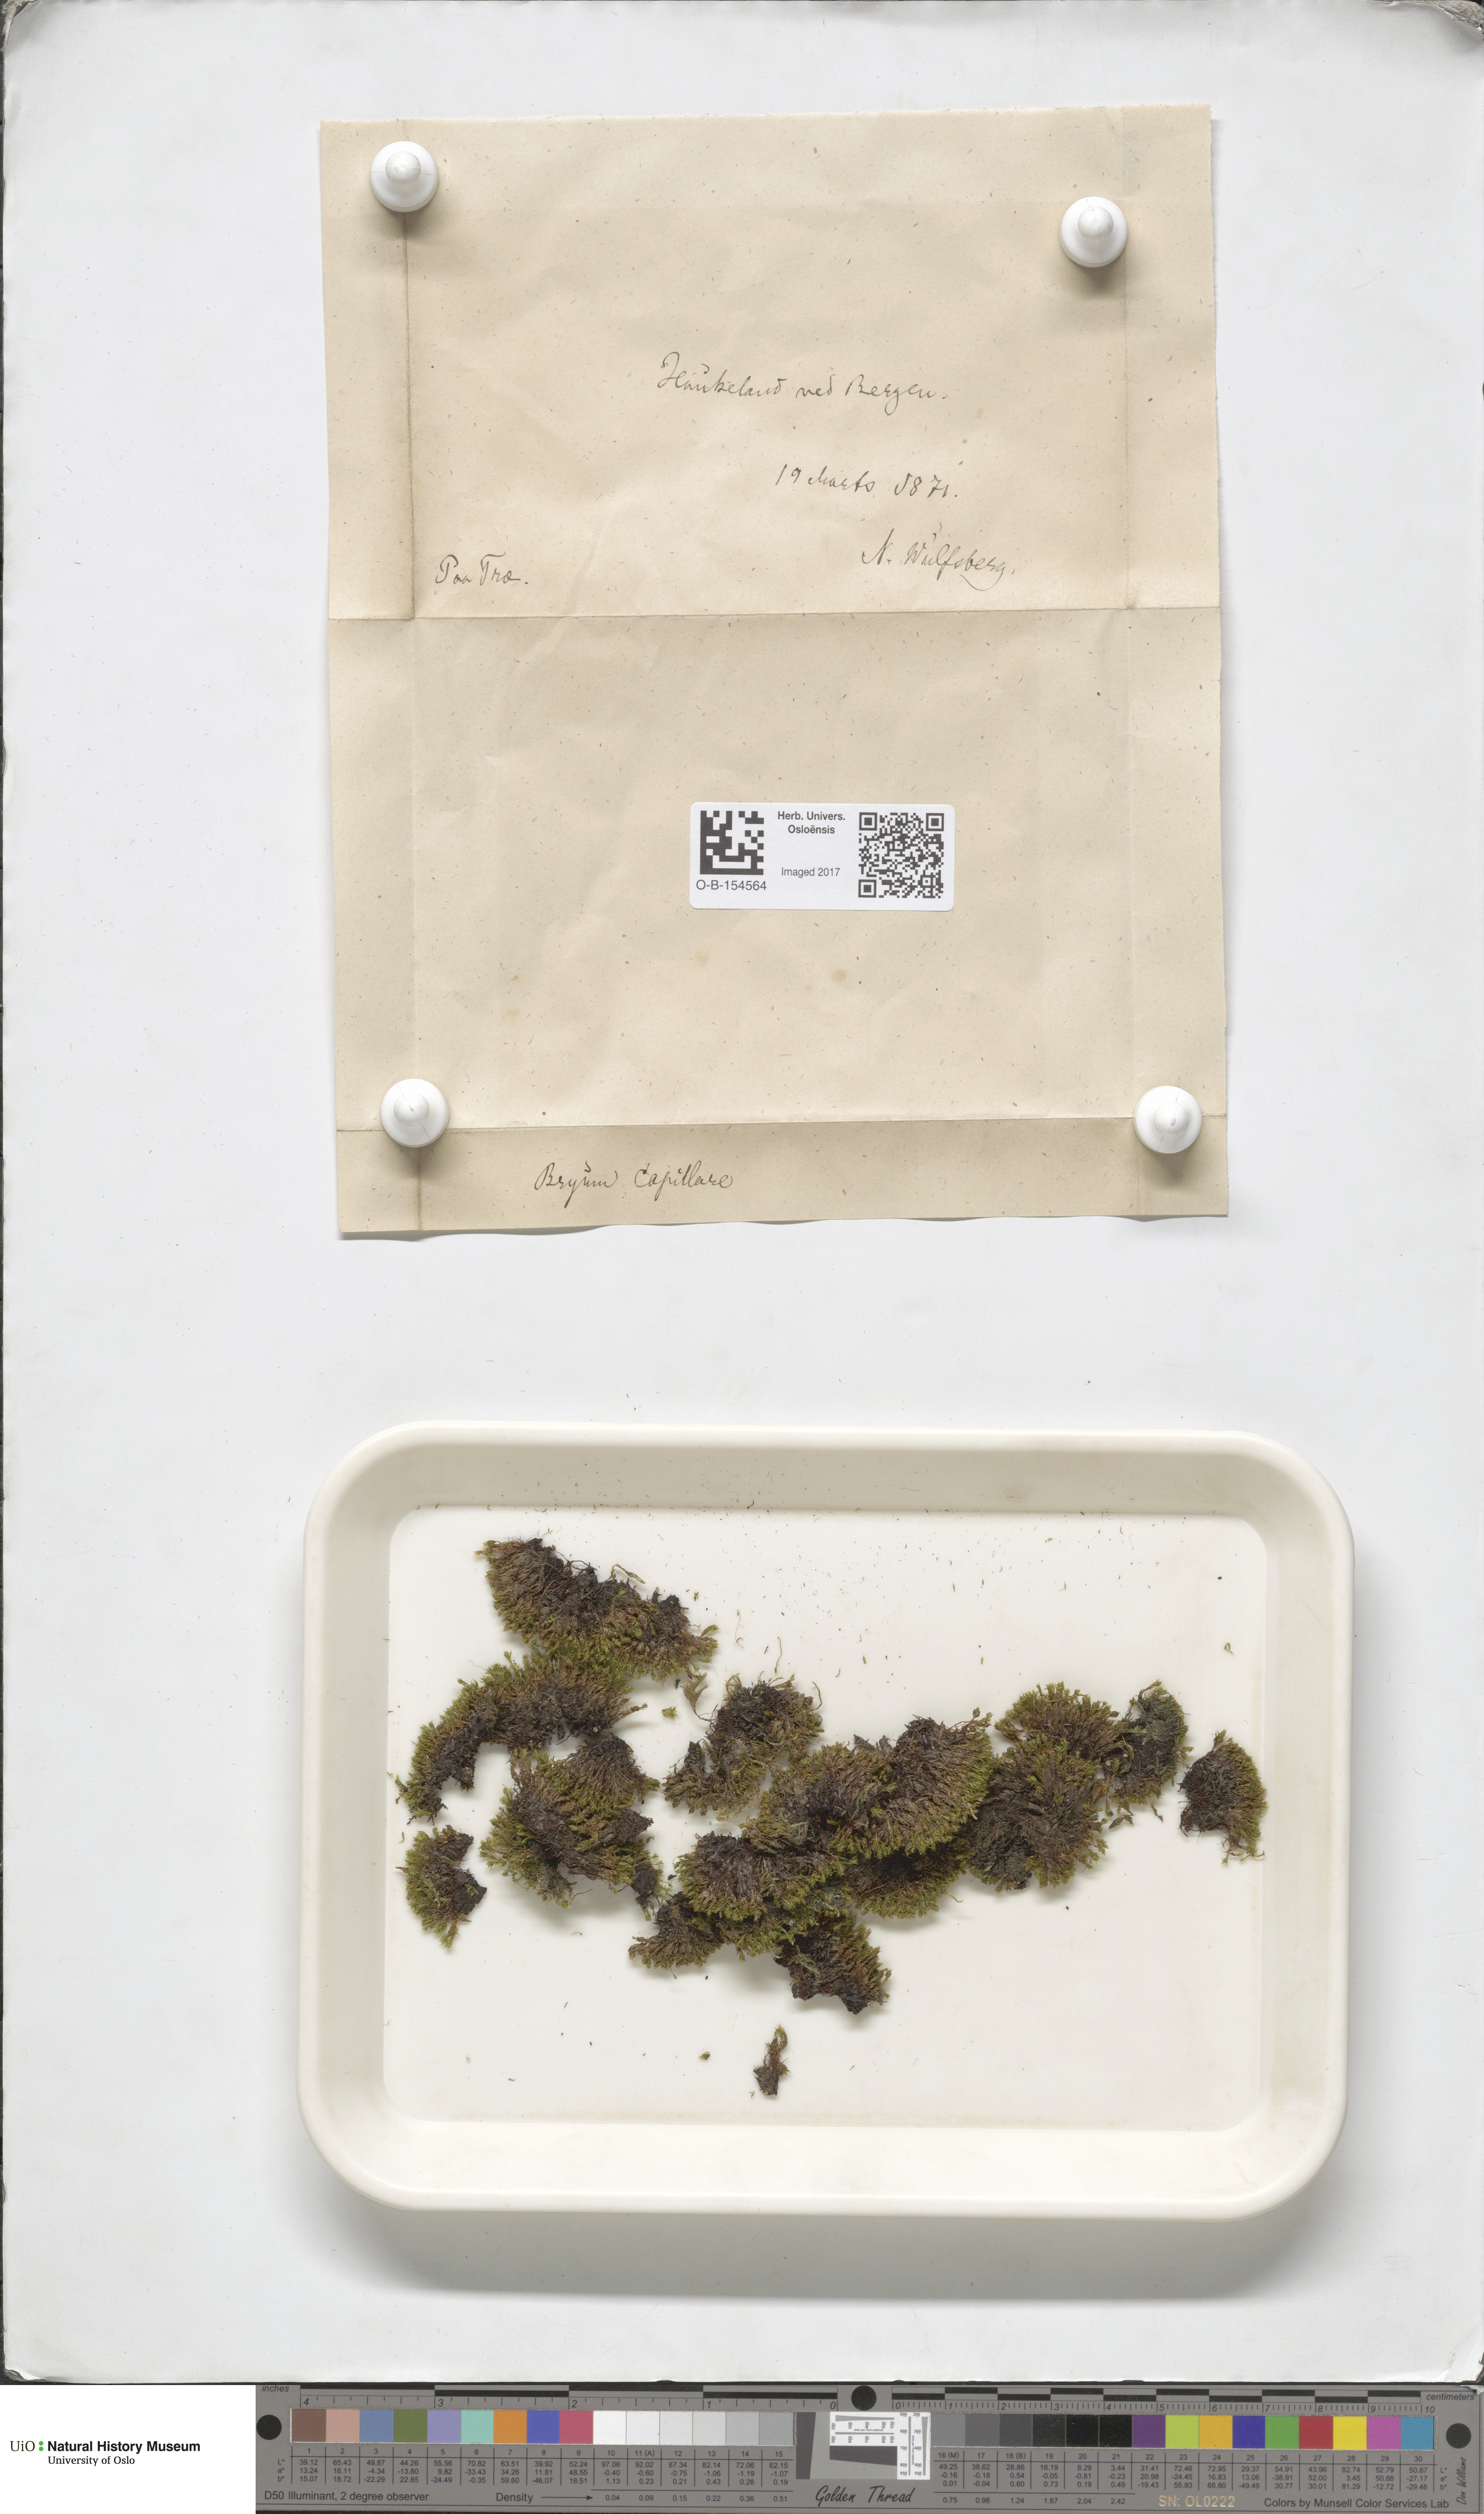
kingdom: Plantae
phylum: Bryophyta
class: Bryopsida
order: Bryales
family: Bryaceae
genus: Rosulabryum
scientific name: Rosulabryum capillare
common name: Capillary thread-moss
